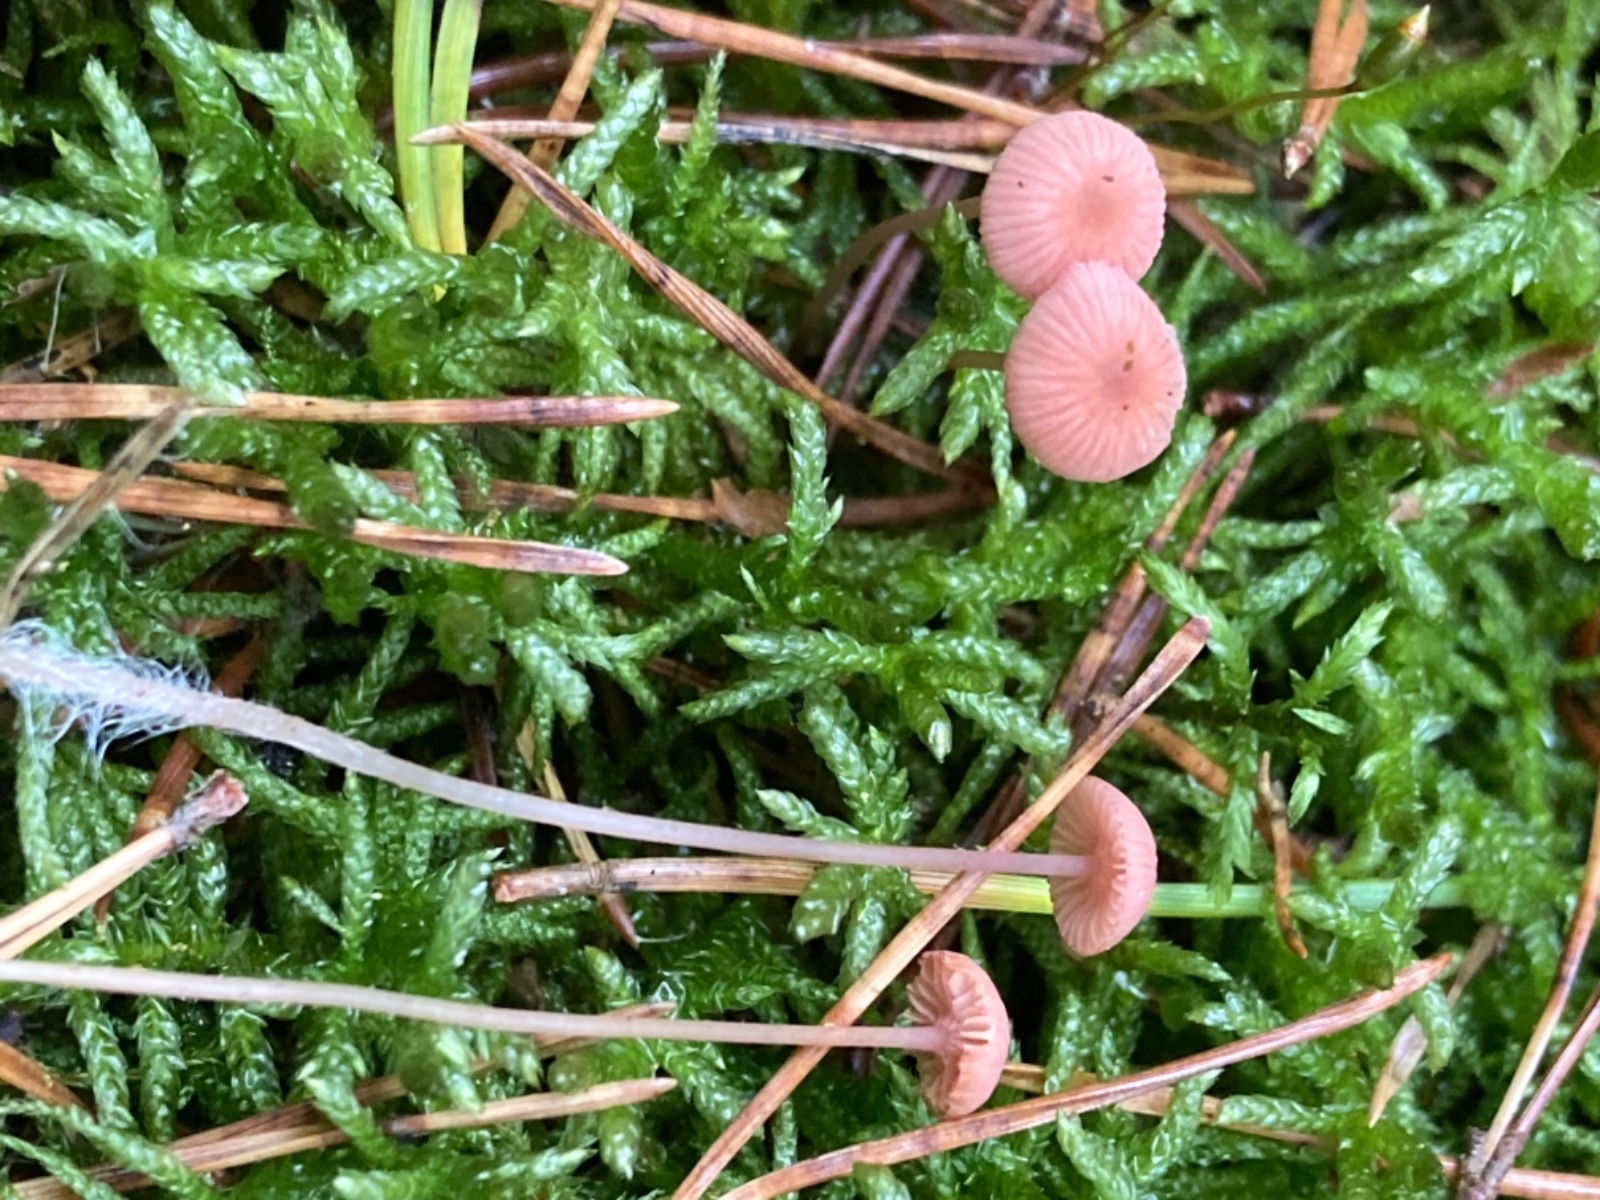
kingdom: Fungi
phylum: Basidiomycota
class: Agaricomycetes
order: Agaricales
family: Mycenaceae
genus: Mycena
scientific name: Mycena rosella
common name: rosenrød huesvamp
